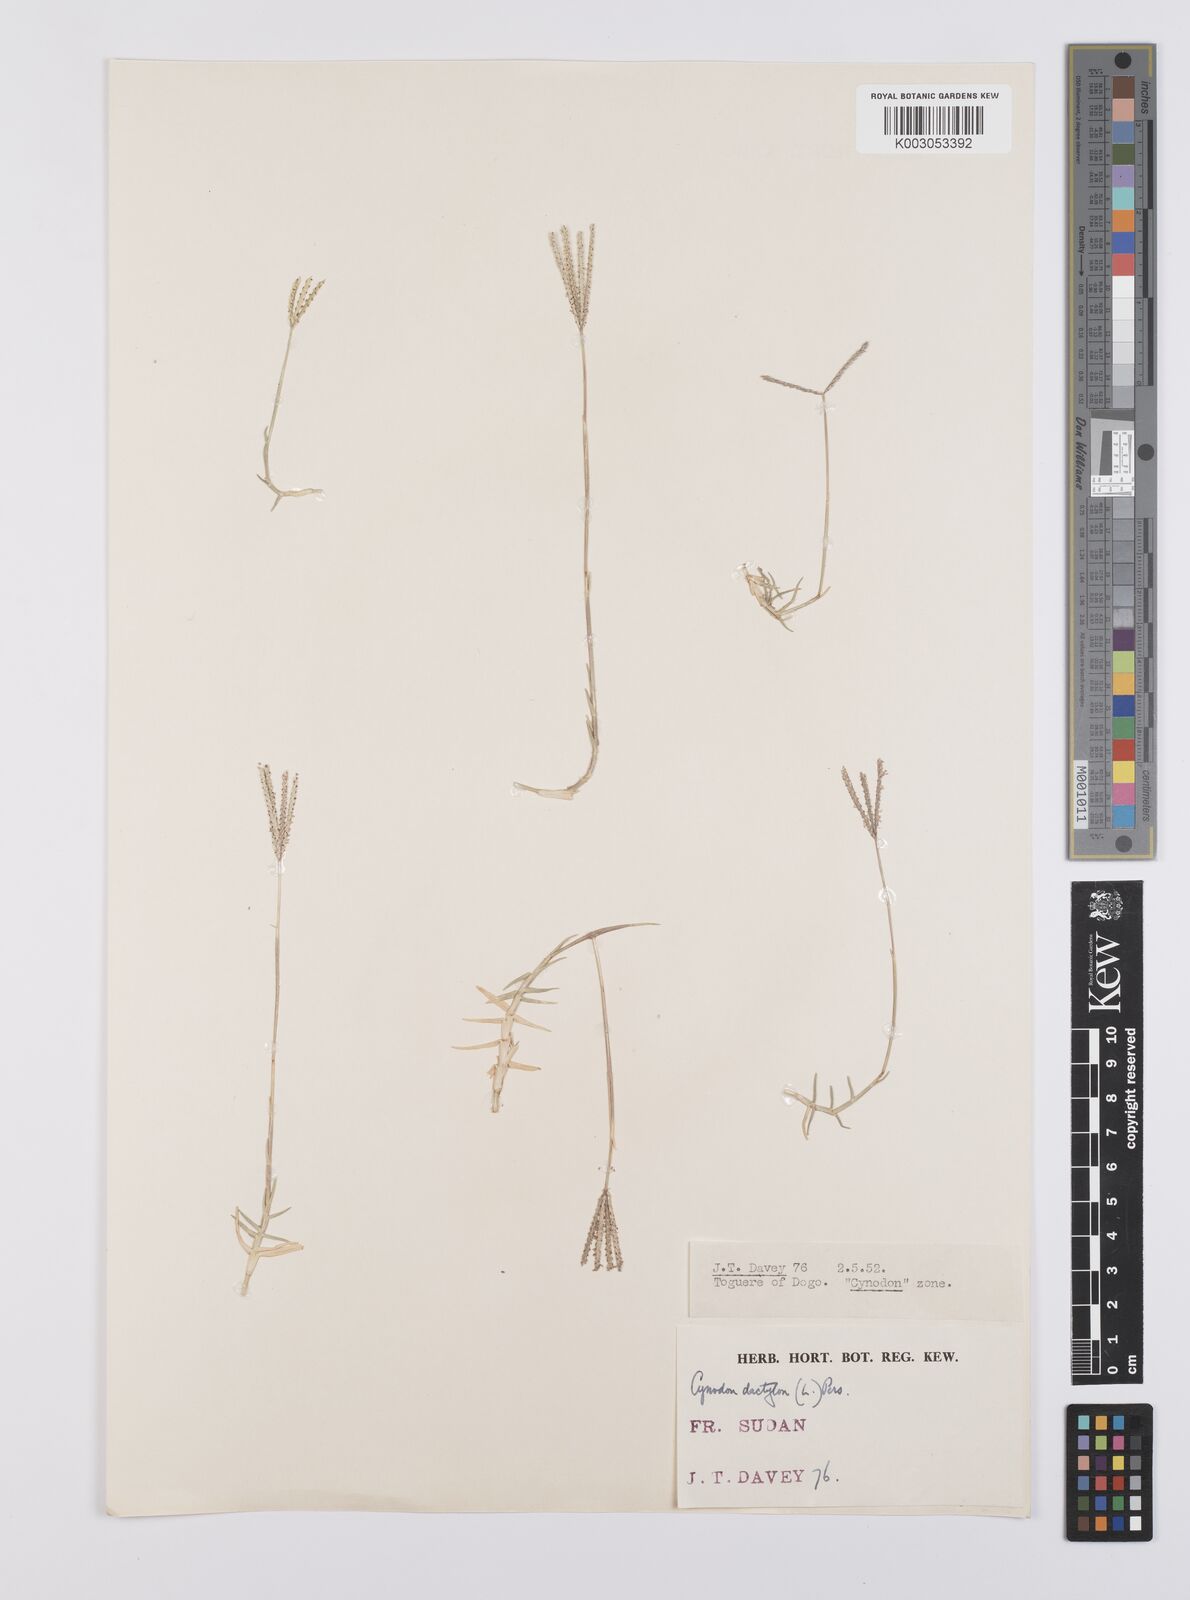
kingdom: Plantae
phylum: Tracheophyta
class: Liliopsida
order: Poales
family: Poaceae
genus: Cynodon
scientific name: Cynodon dactylon
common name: Bermuda grass
